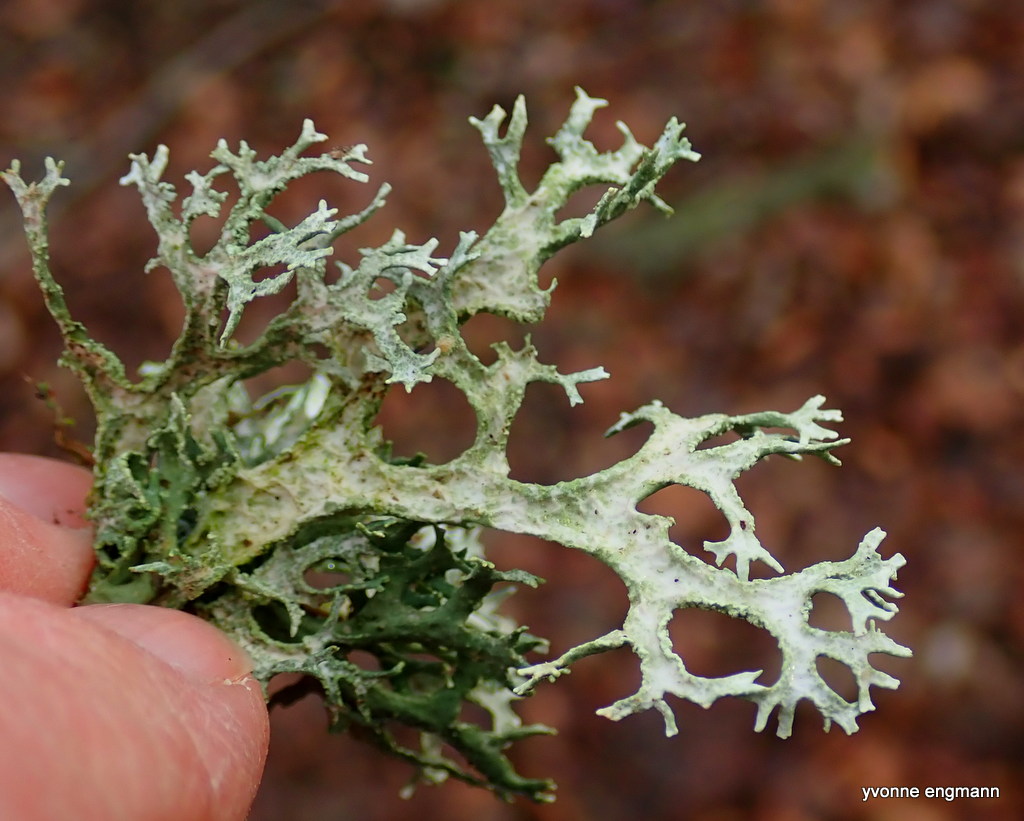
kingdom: Fungi
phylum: Ascomycota
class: Lecanoromycetes
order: Lecanorales
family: Parmeliaceae
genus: Evernia
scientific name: Evernia prunastri
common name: almindelig slåenlav
